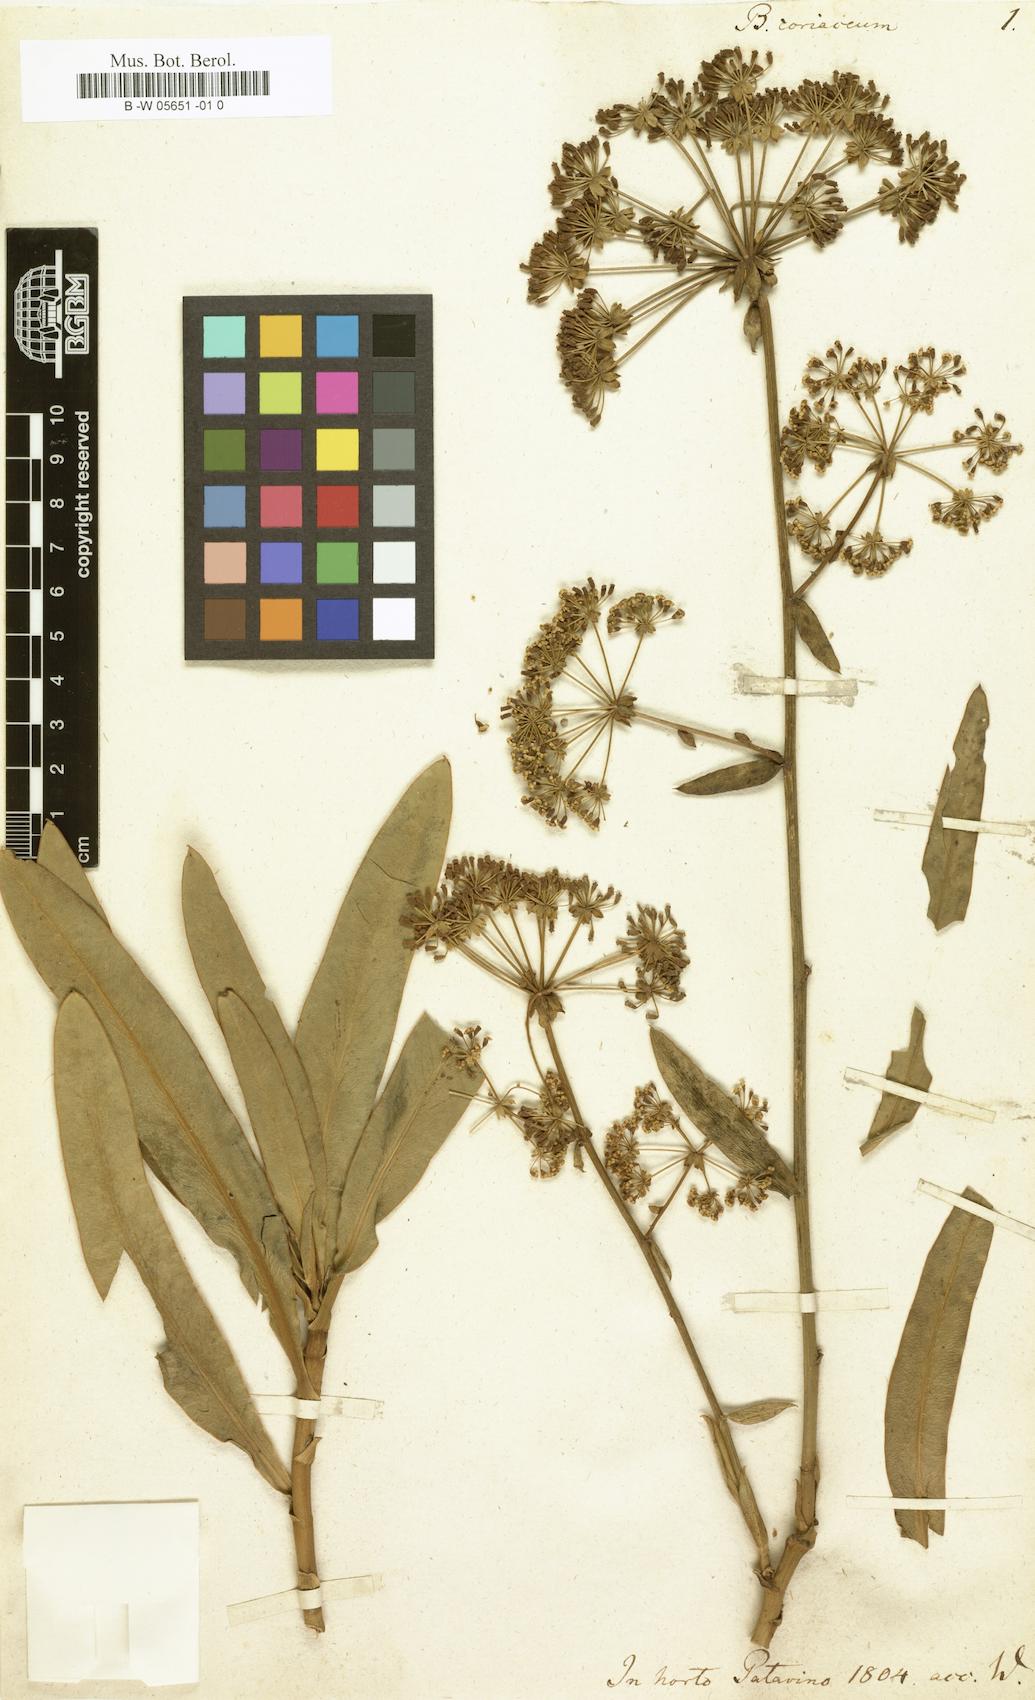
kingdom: Plantae
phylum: Tracheophyta
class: Magnoliopsida
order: Apiales
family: Apiaceae
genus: Bupleurum
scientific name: Bupleurum gibraltaricum
